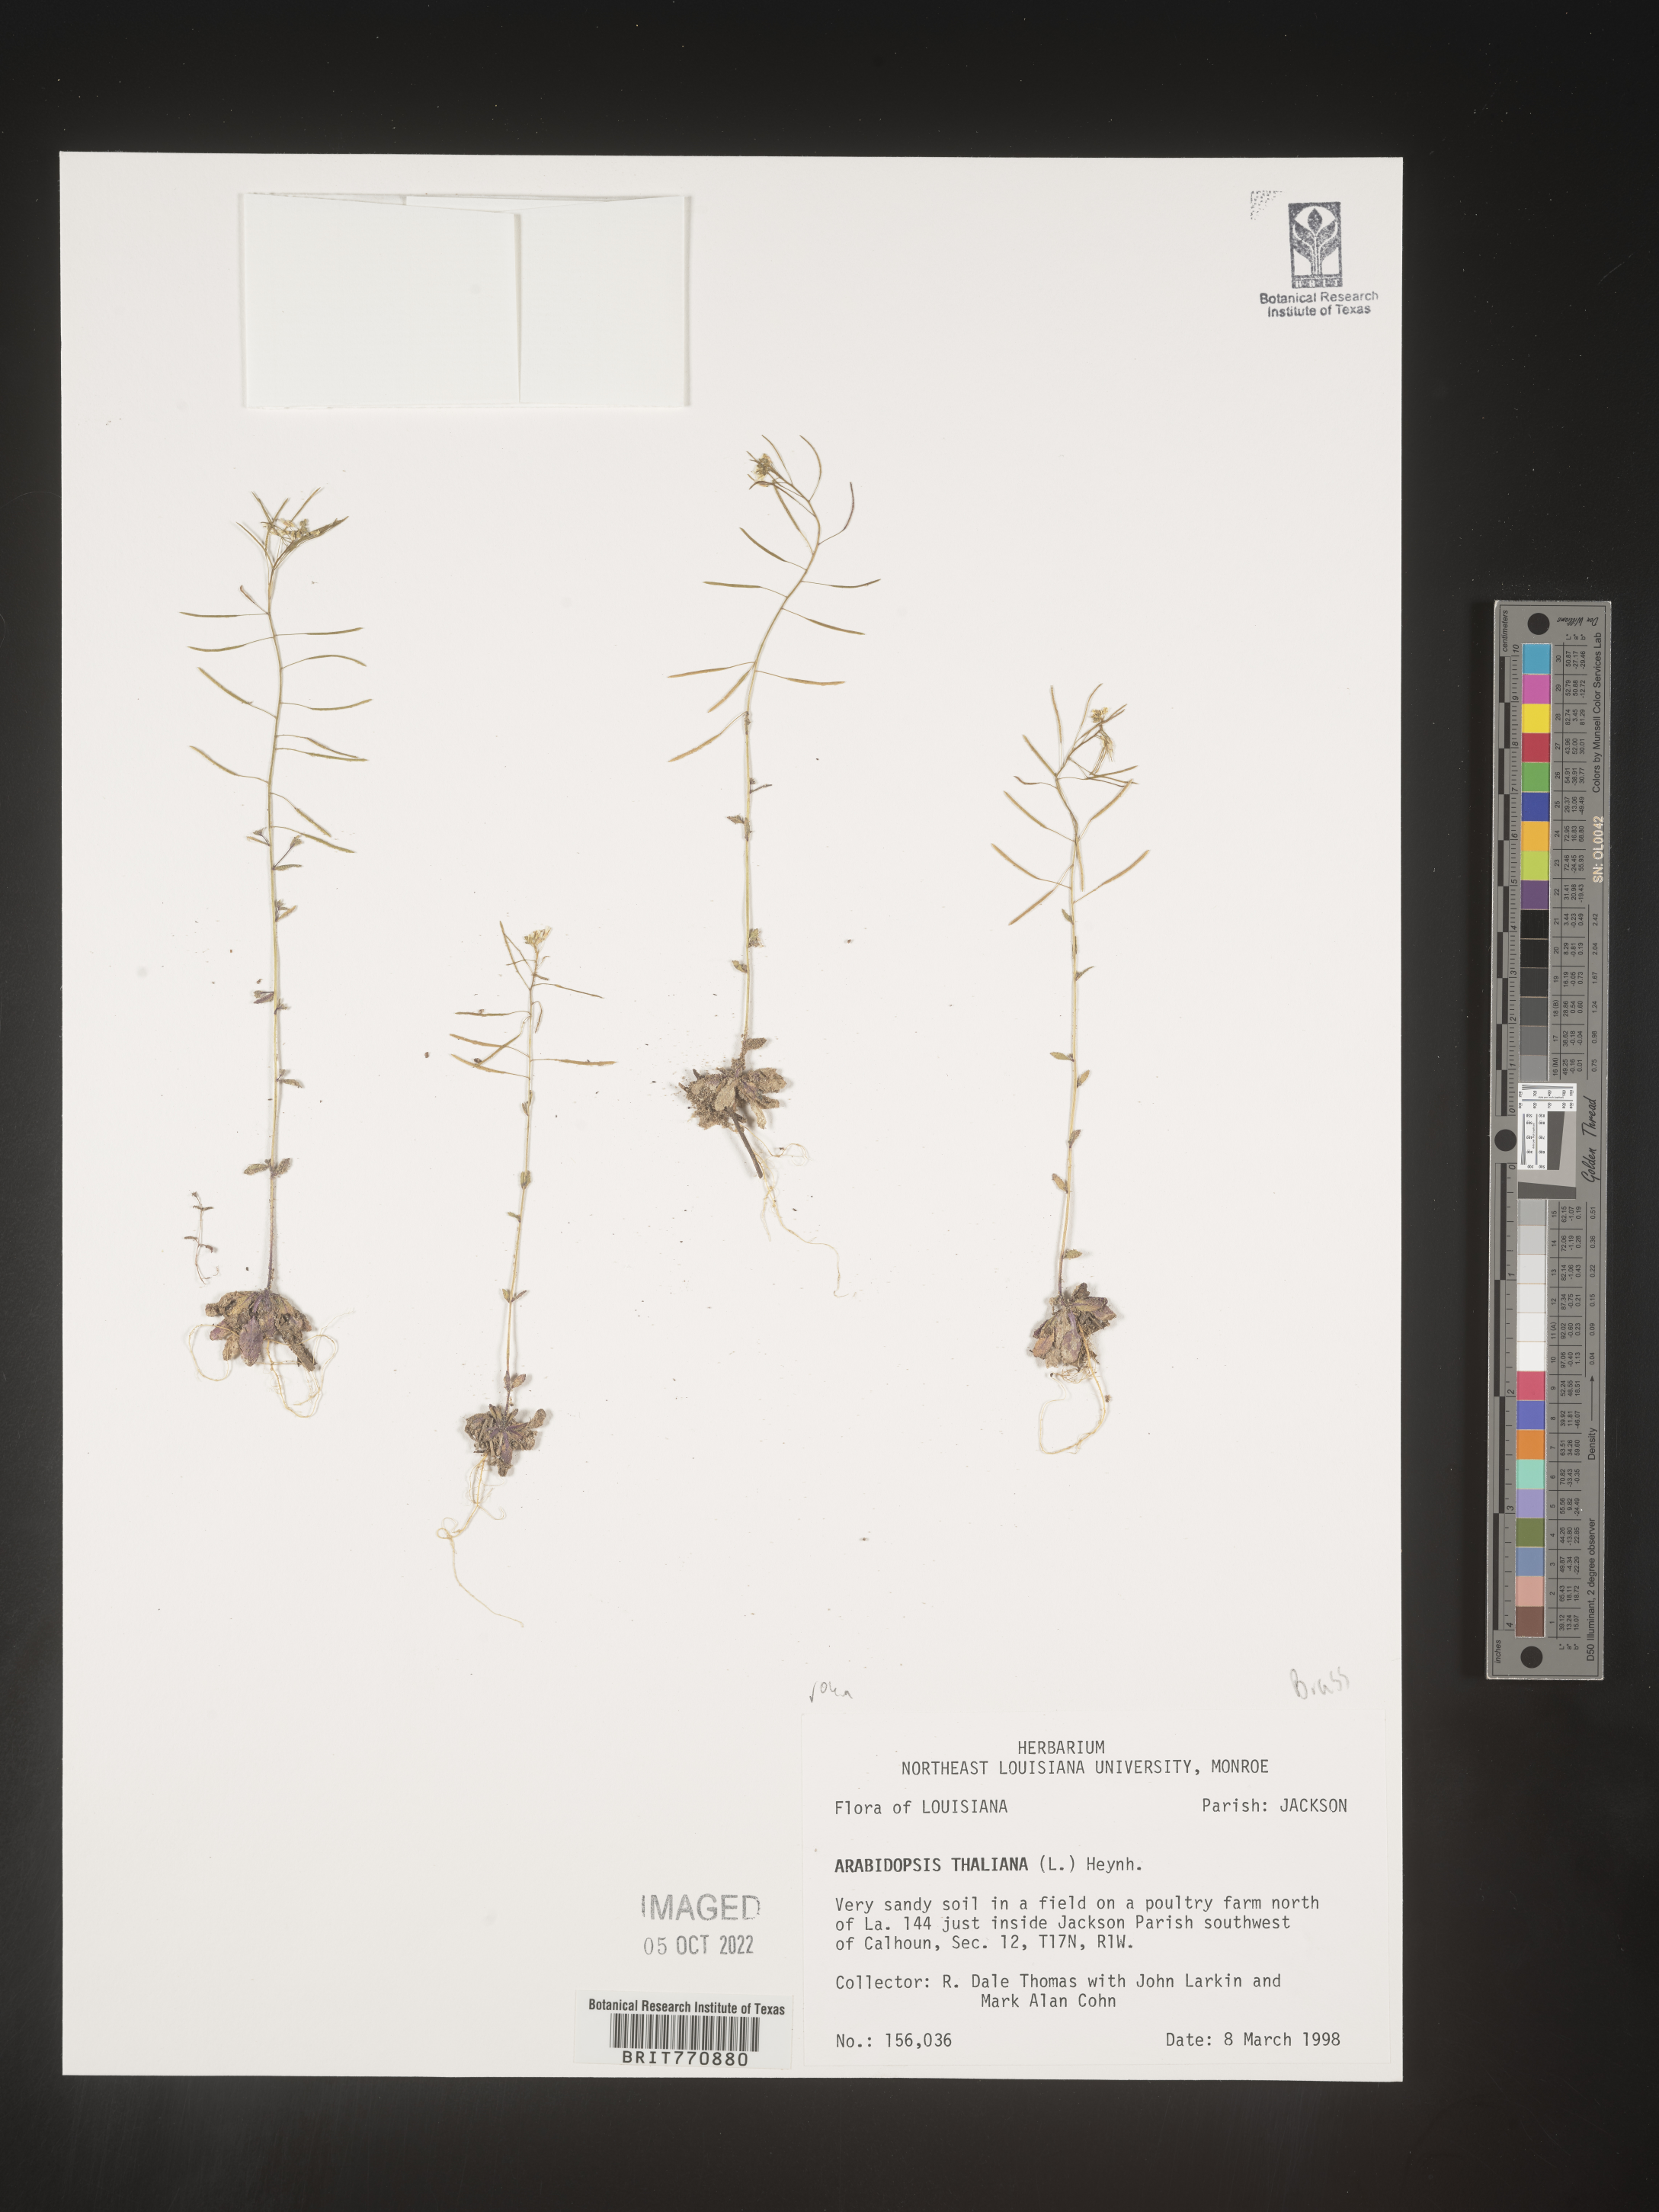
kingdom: Plantae
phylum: Tracheophyta
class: Magnoliopsida
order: Brassicales
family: Brassicaceae
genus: Arabidopsis
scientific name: Arabidopsis thaliana
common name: Thale cress
